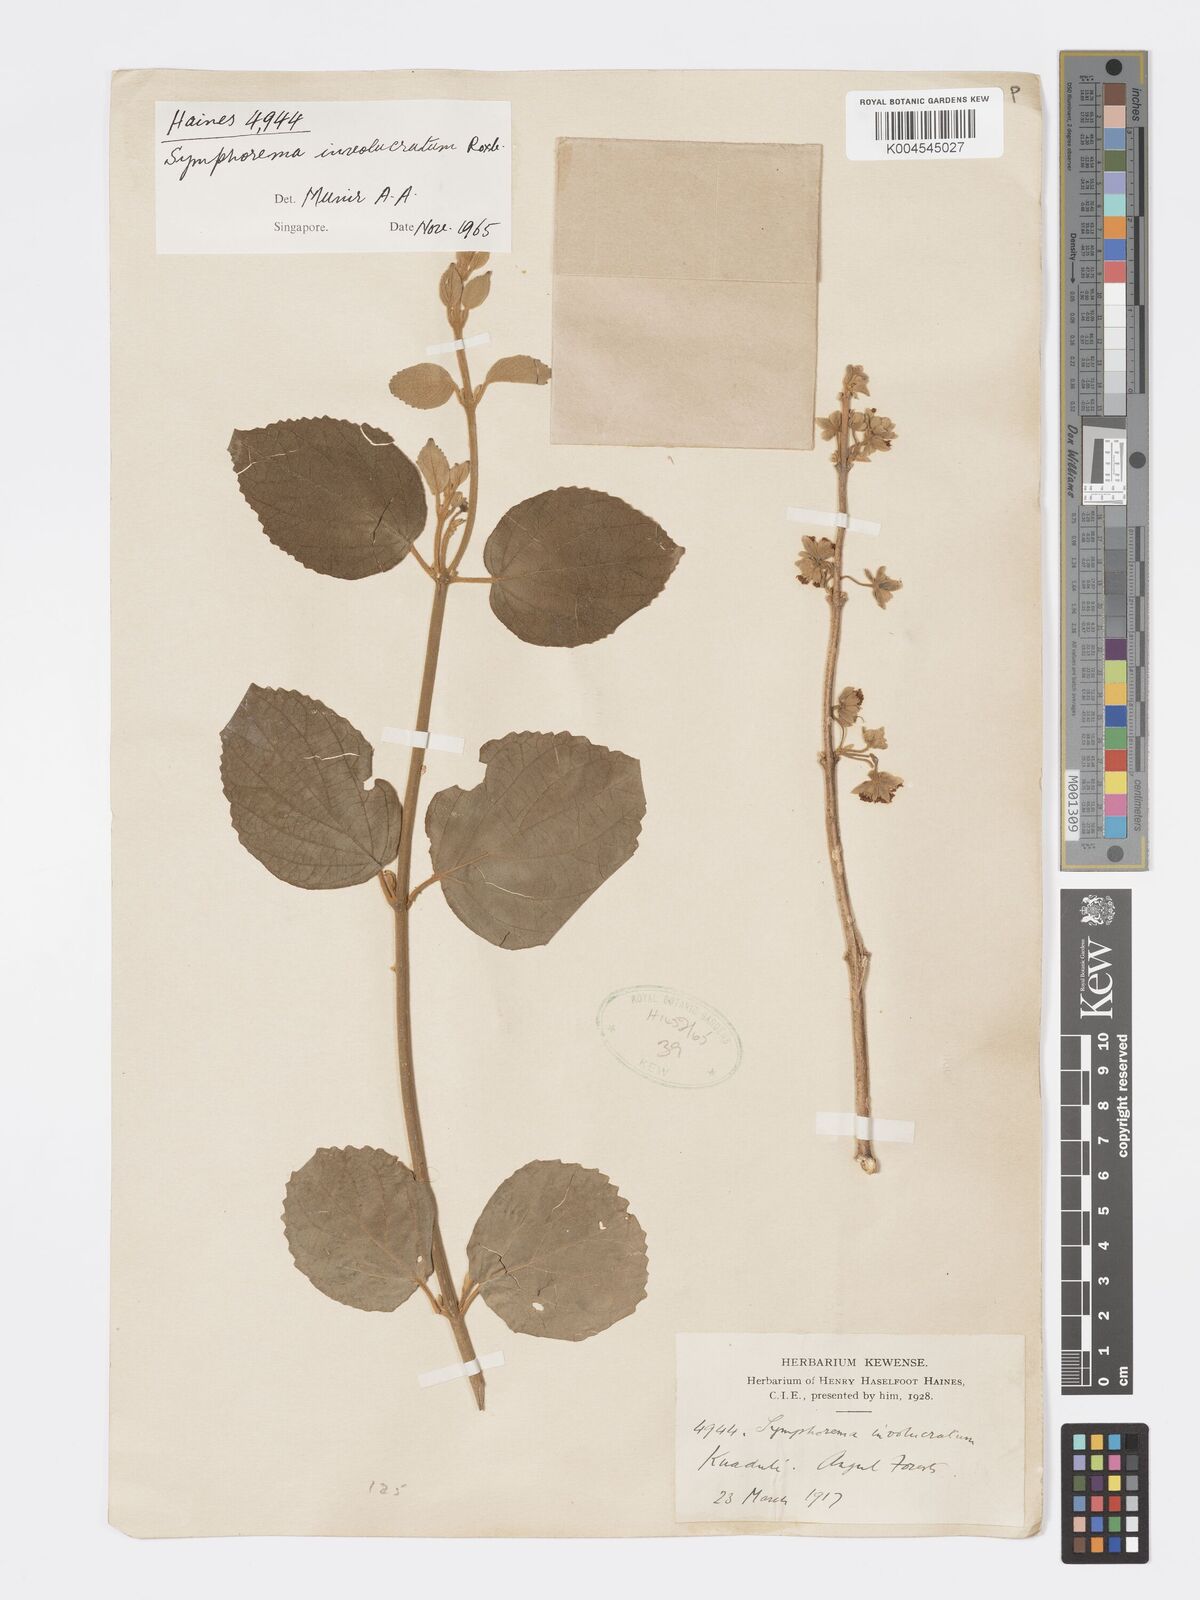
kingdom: Plantae
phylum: Tracheophyta
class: Magnoliopsida
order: Lamiales
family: Lamiaceae
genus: Symphorema
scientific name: Symphorema involucratum
